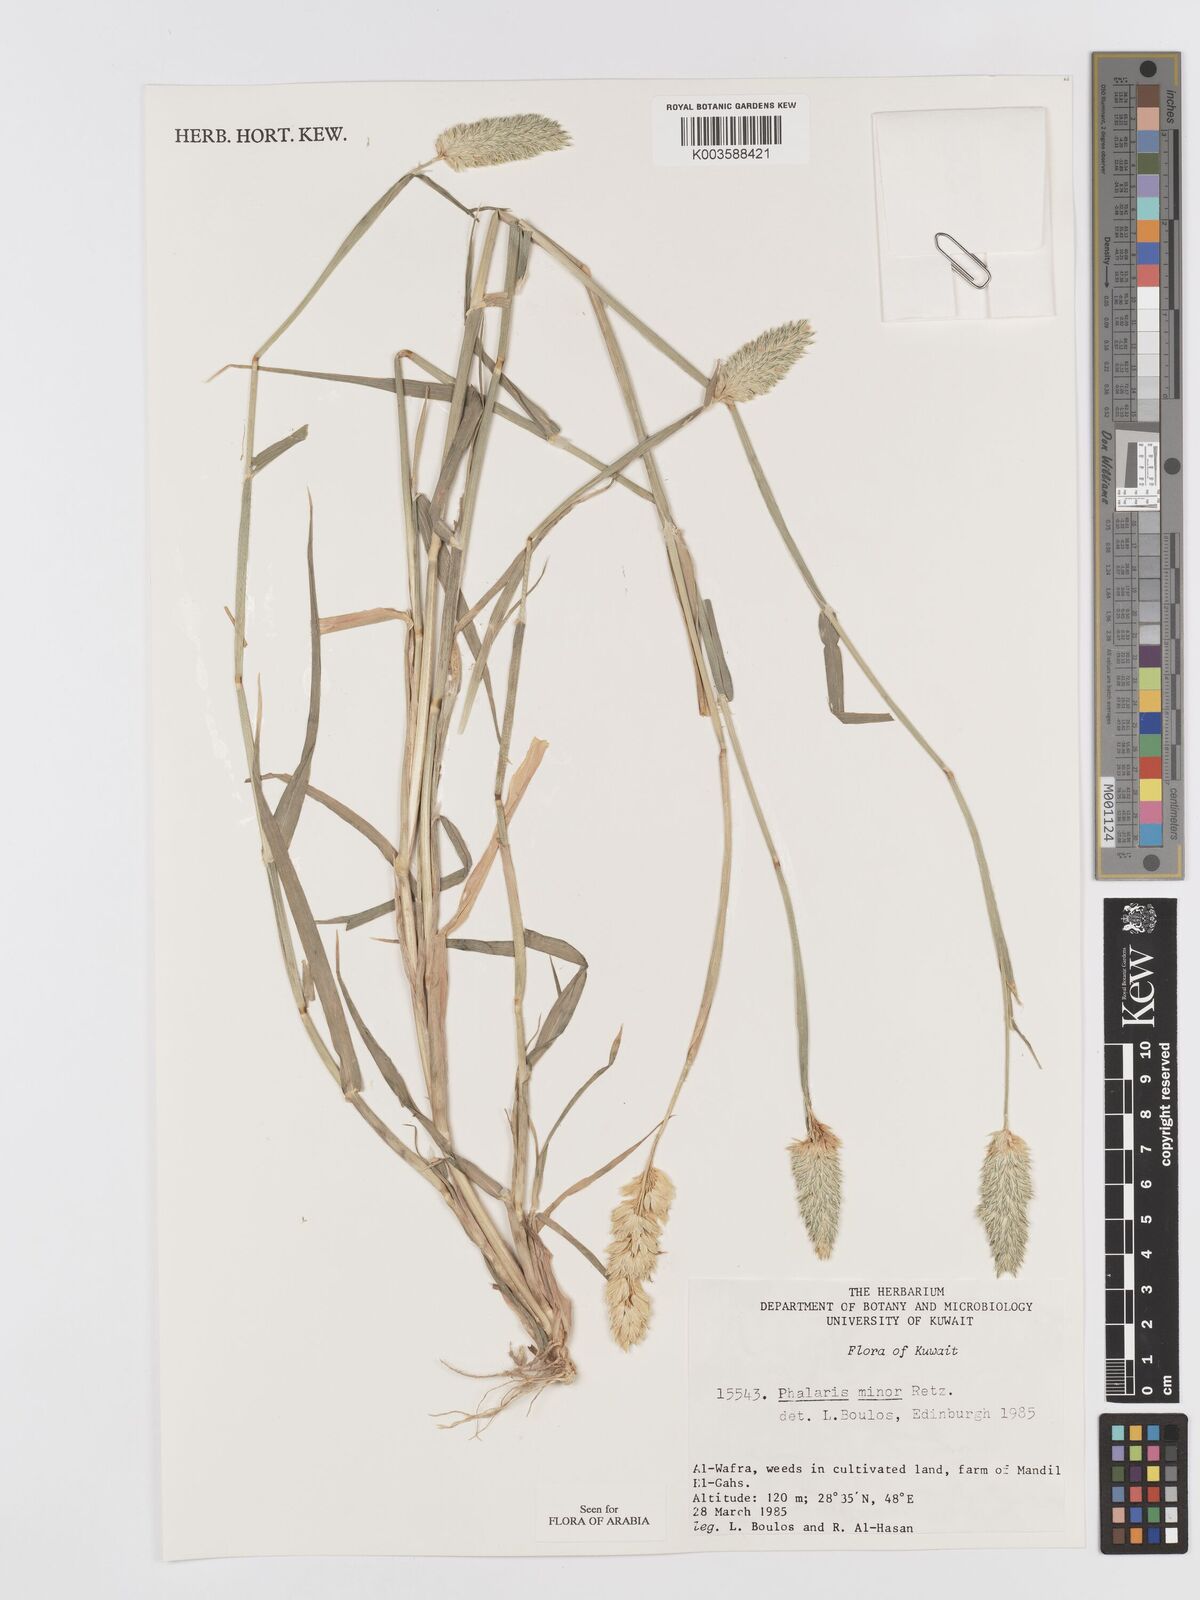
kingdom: Plantae
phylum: Tracheophyta
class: Liliopsida
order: Poales
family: Poaceae
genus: Phalaris
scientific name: Phalaris minor
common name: Littleseed canarygrass
